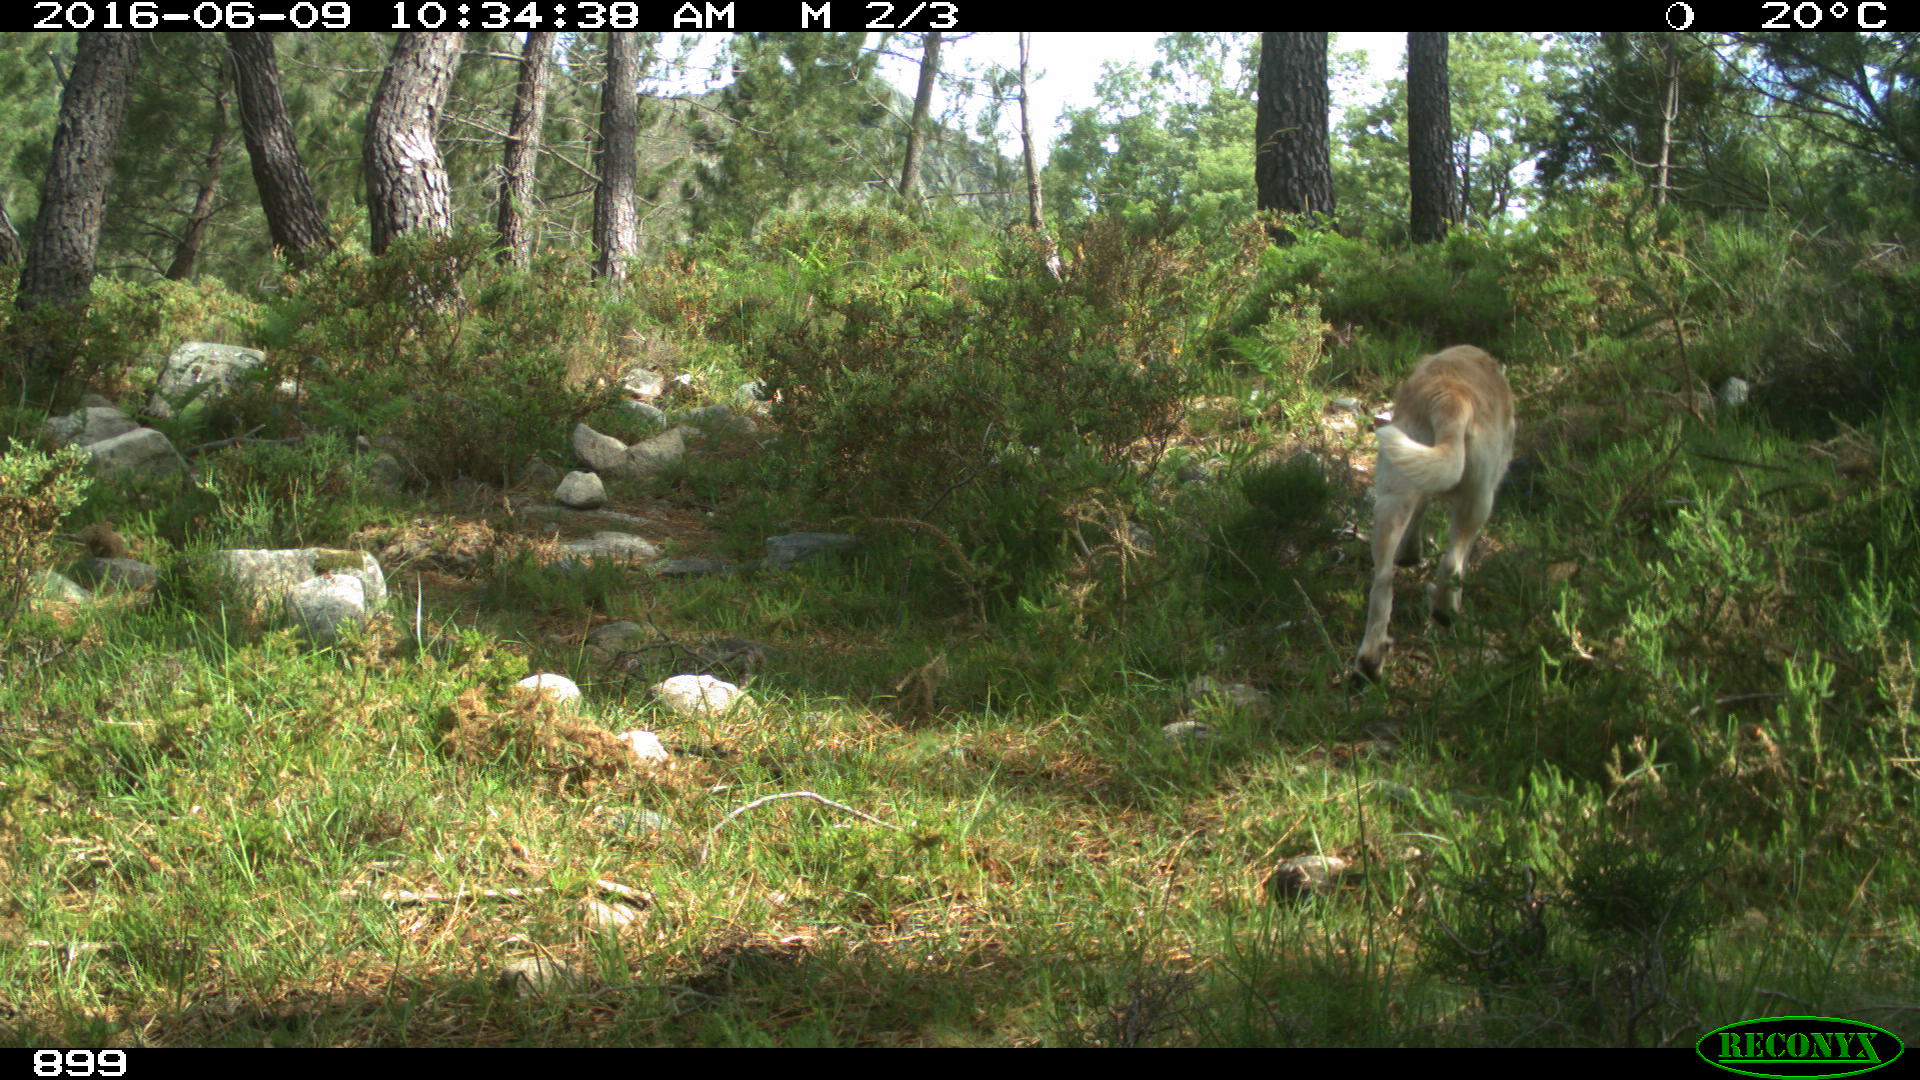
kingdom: Animalia
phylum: Chordata
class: Mammalia
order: Carnivora
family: Canidae
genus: Canis
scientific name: Canis lupus
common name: Gray wolf
